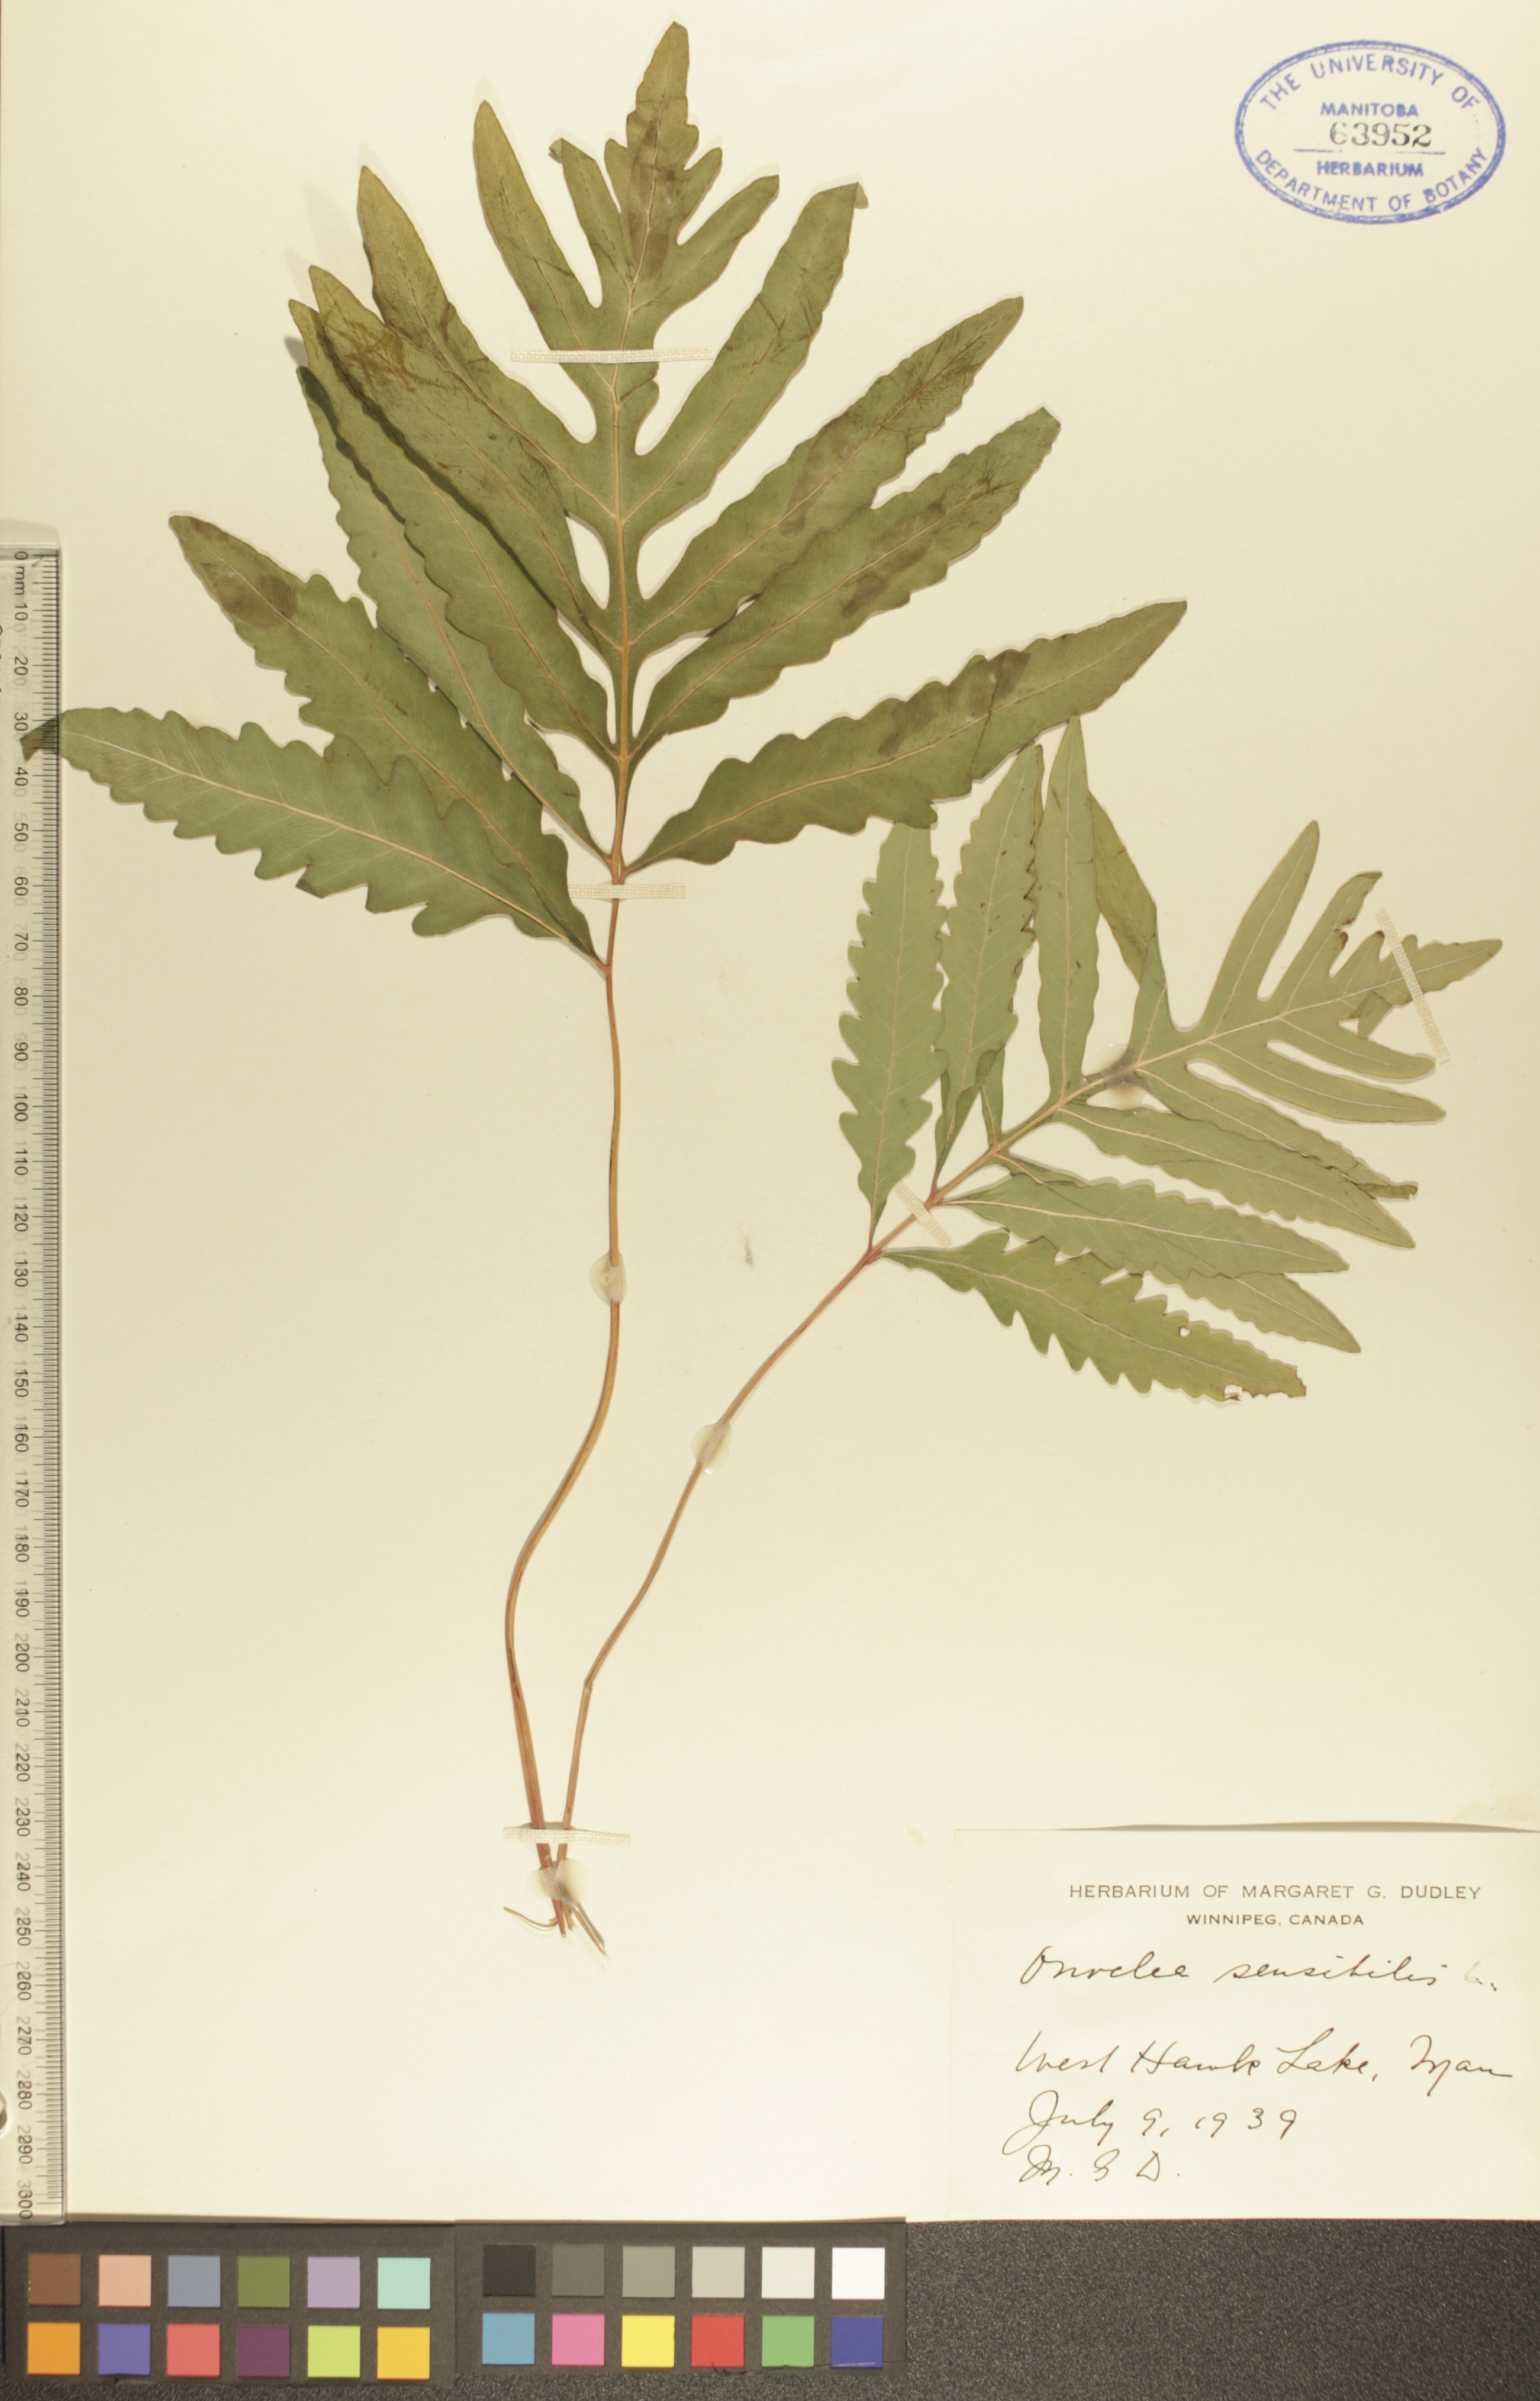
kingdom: Plantae
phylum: Tracheophyta
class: Polypodiopsida
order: Polypodiales
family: Onocleaceae
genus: Onoclea
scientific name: Onoclea sensibilis
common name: Sensitive fern
